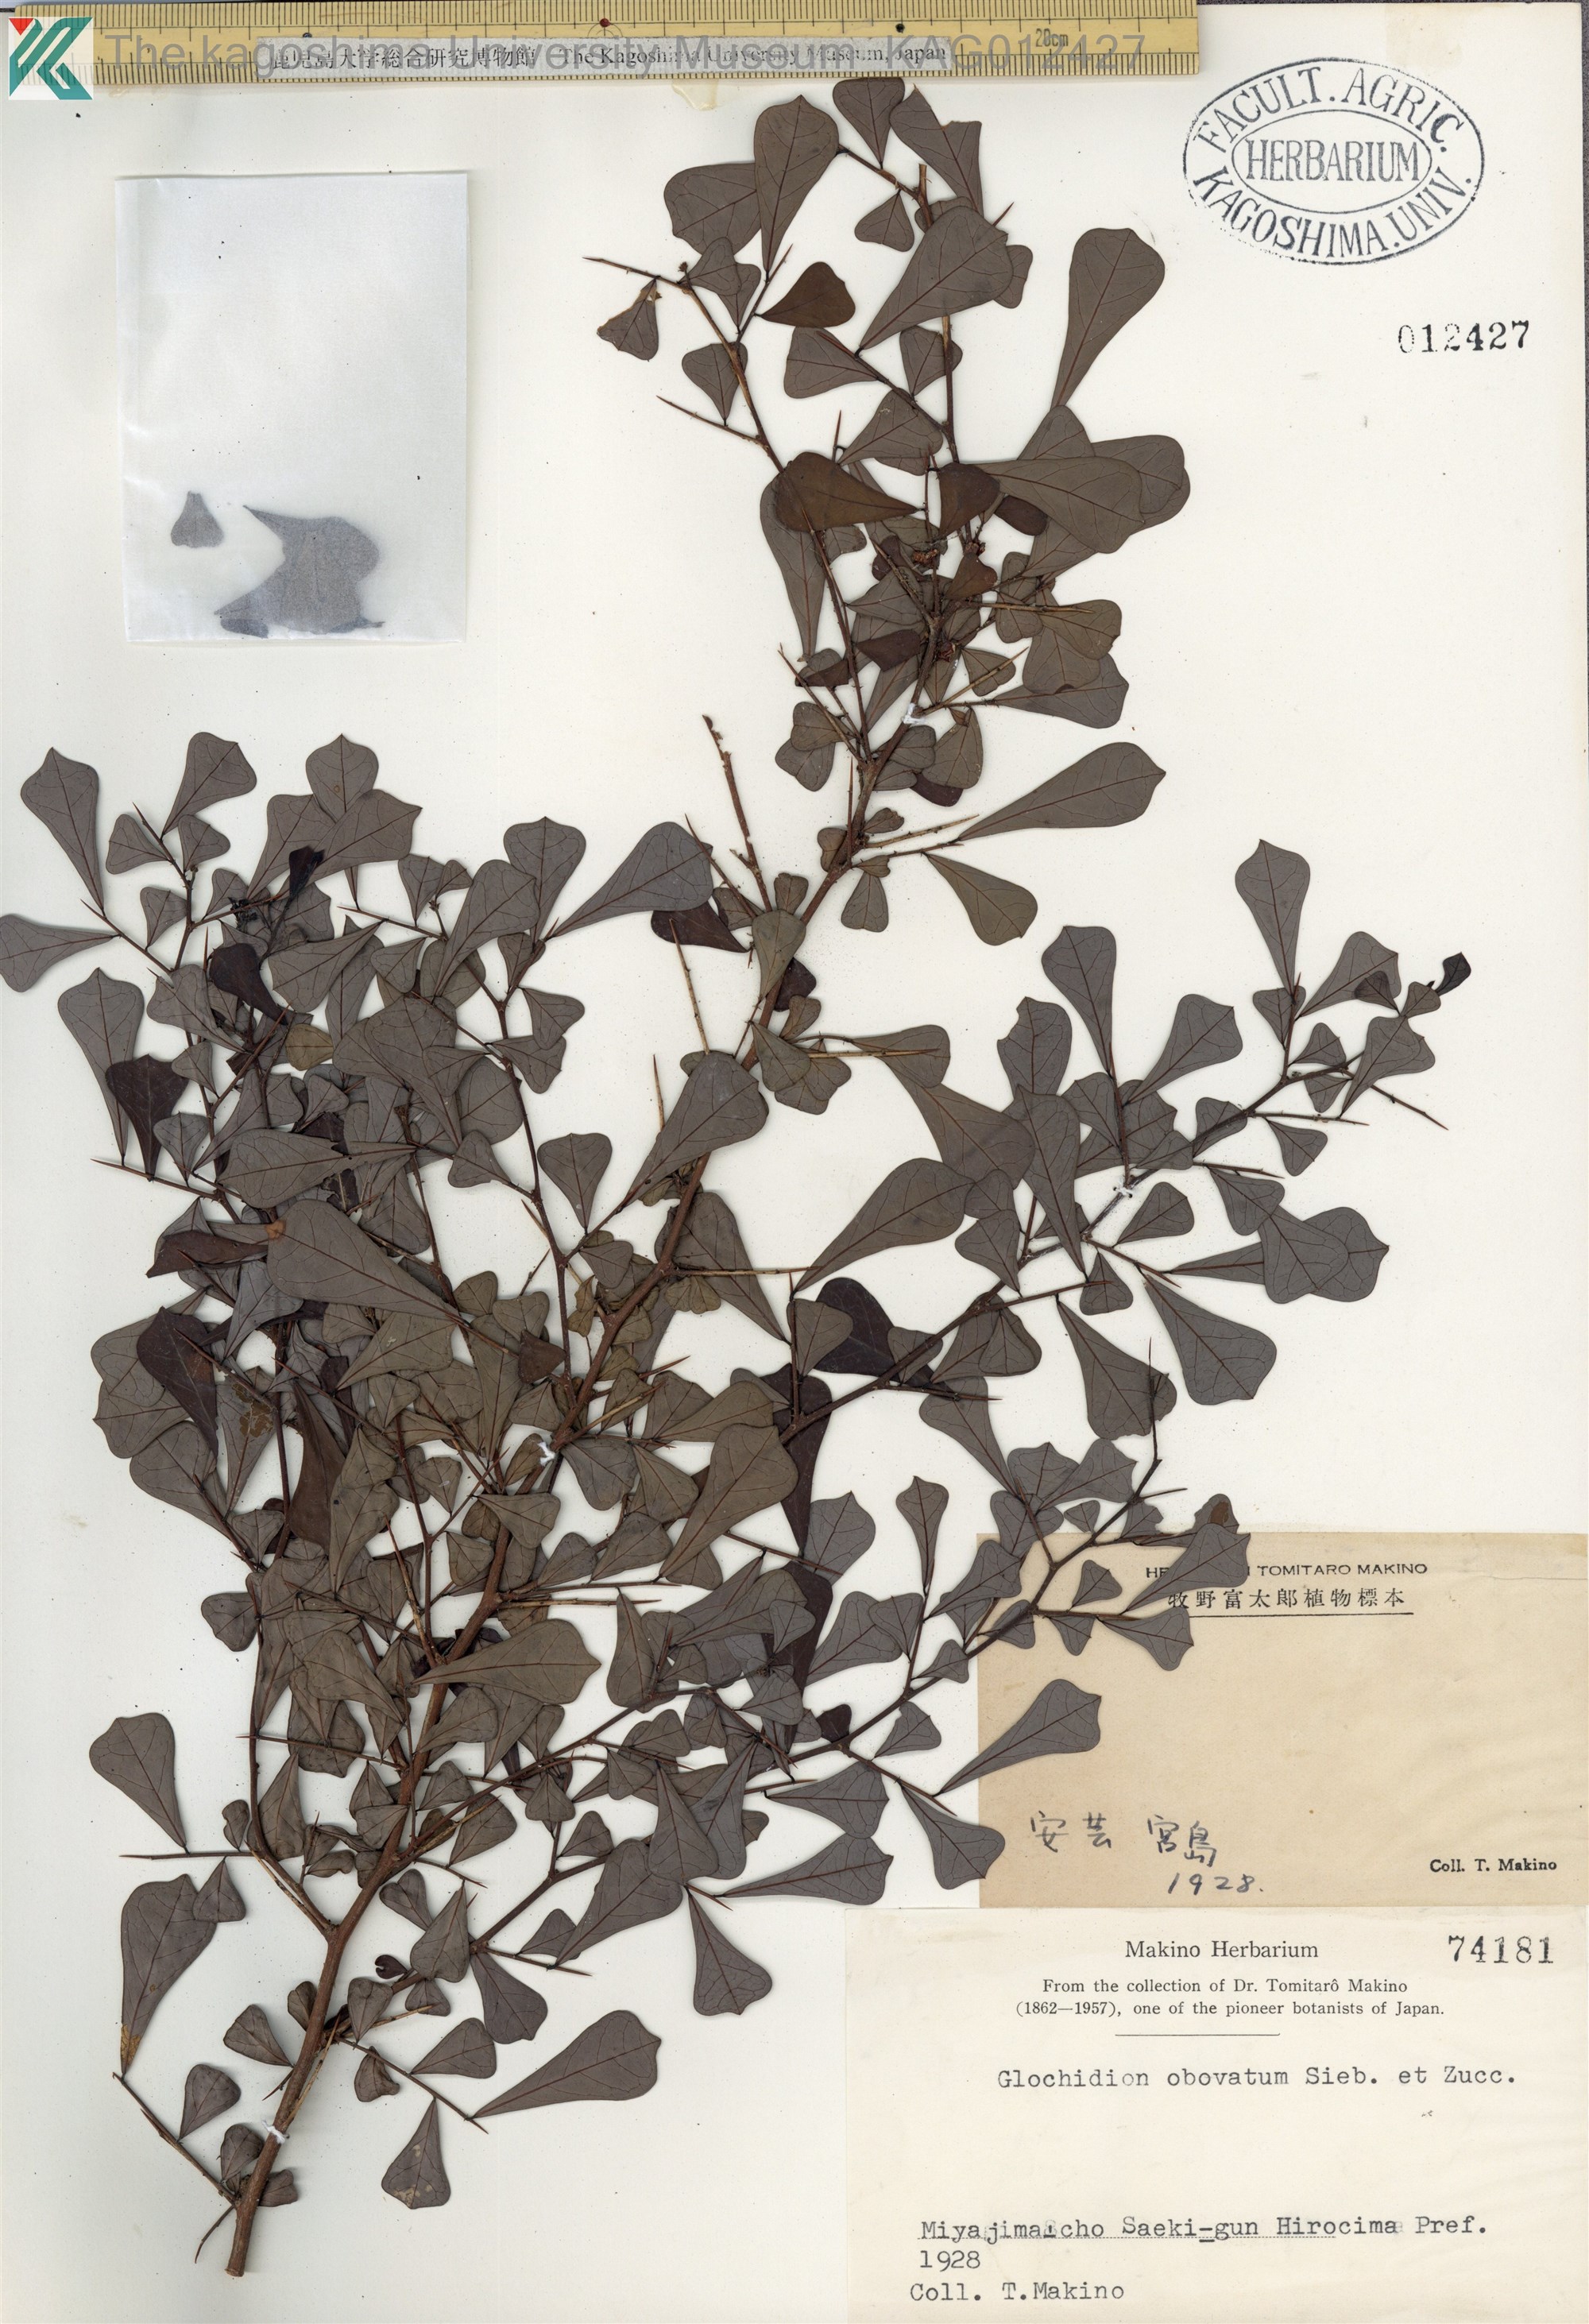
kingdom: Plantae
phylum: Tracheophyta
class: Magnoliopsida
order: Malpighiales
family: Phyllanthaceae
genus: Glochidion
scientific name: Glochidion obovatum
